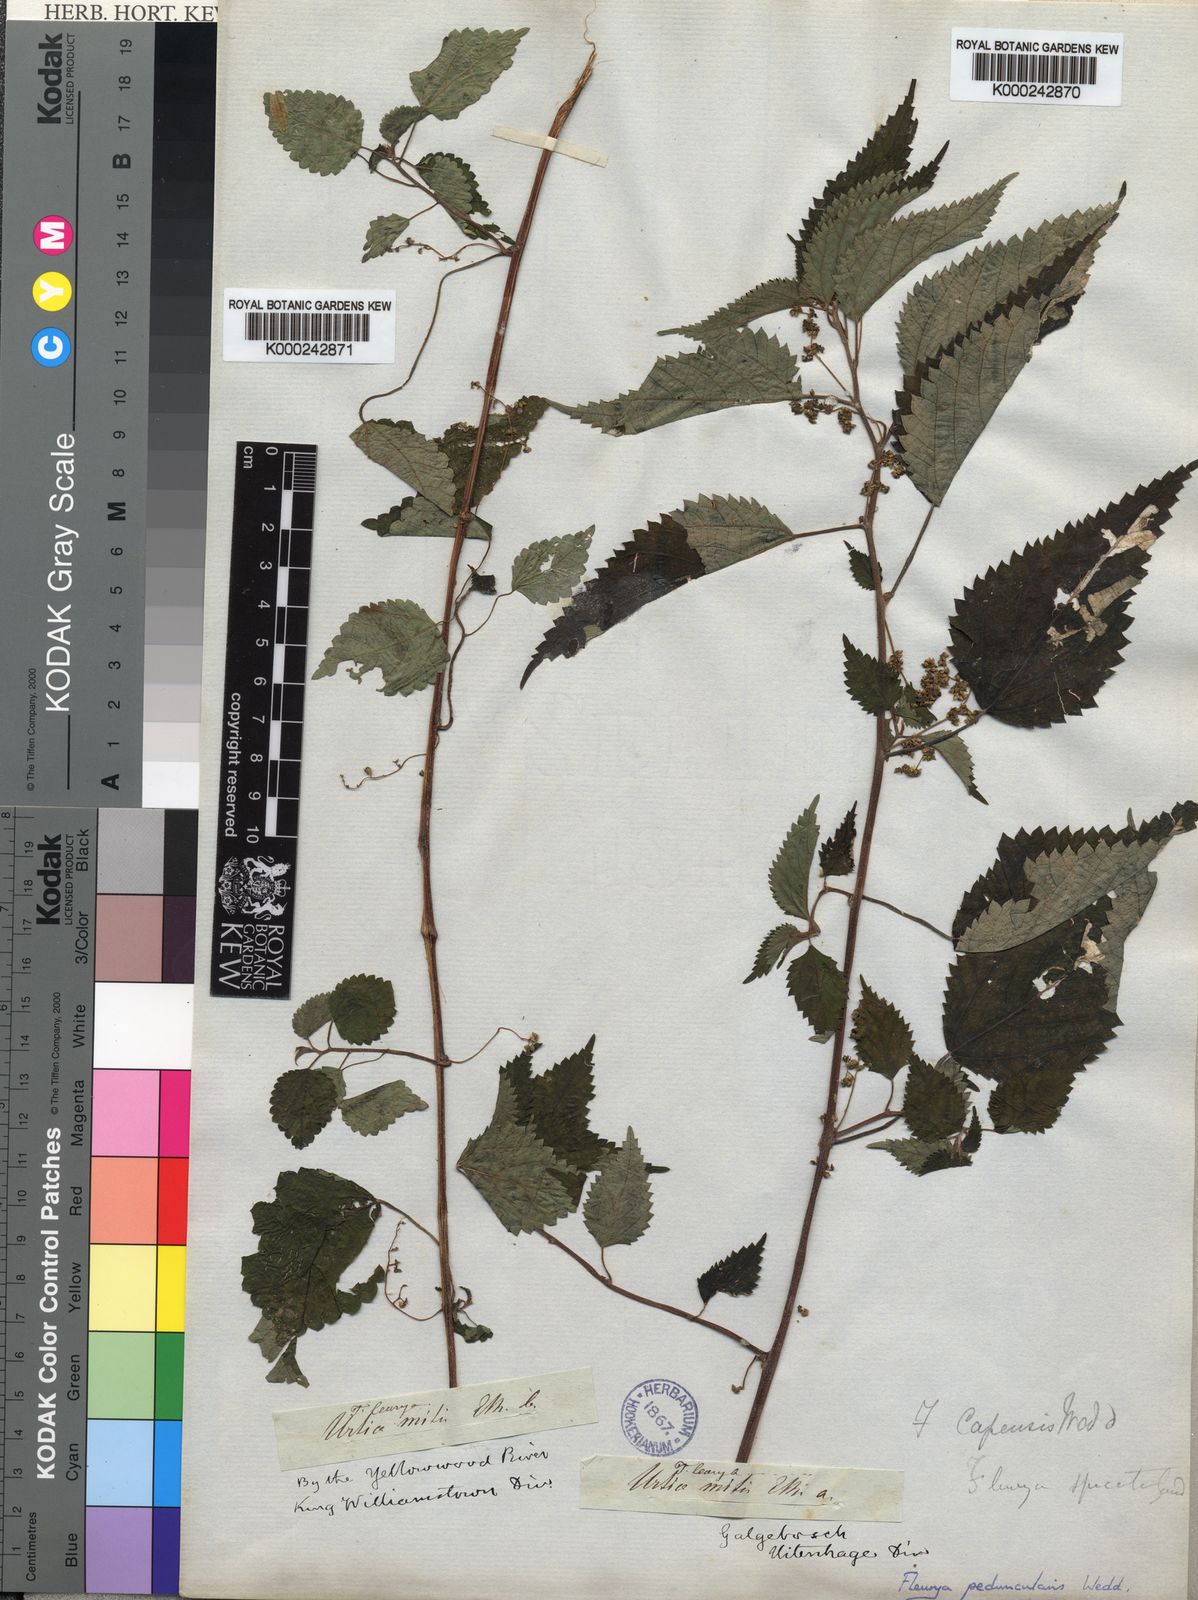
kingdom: Plantae
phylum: Tracheophyta
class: Magnoliopsida
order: Rosales
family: Urticaceae
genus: Laportea
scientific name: Laportea peduncularis
